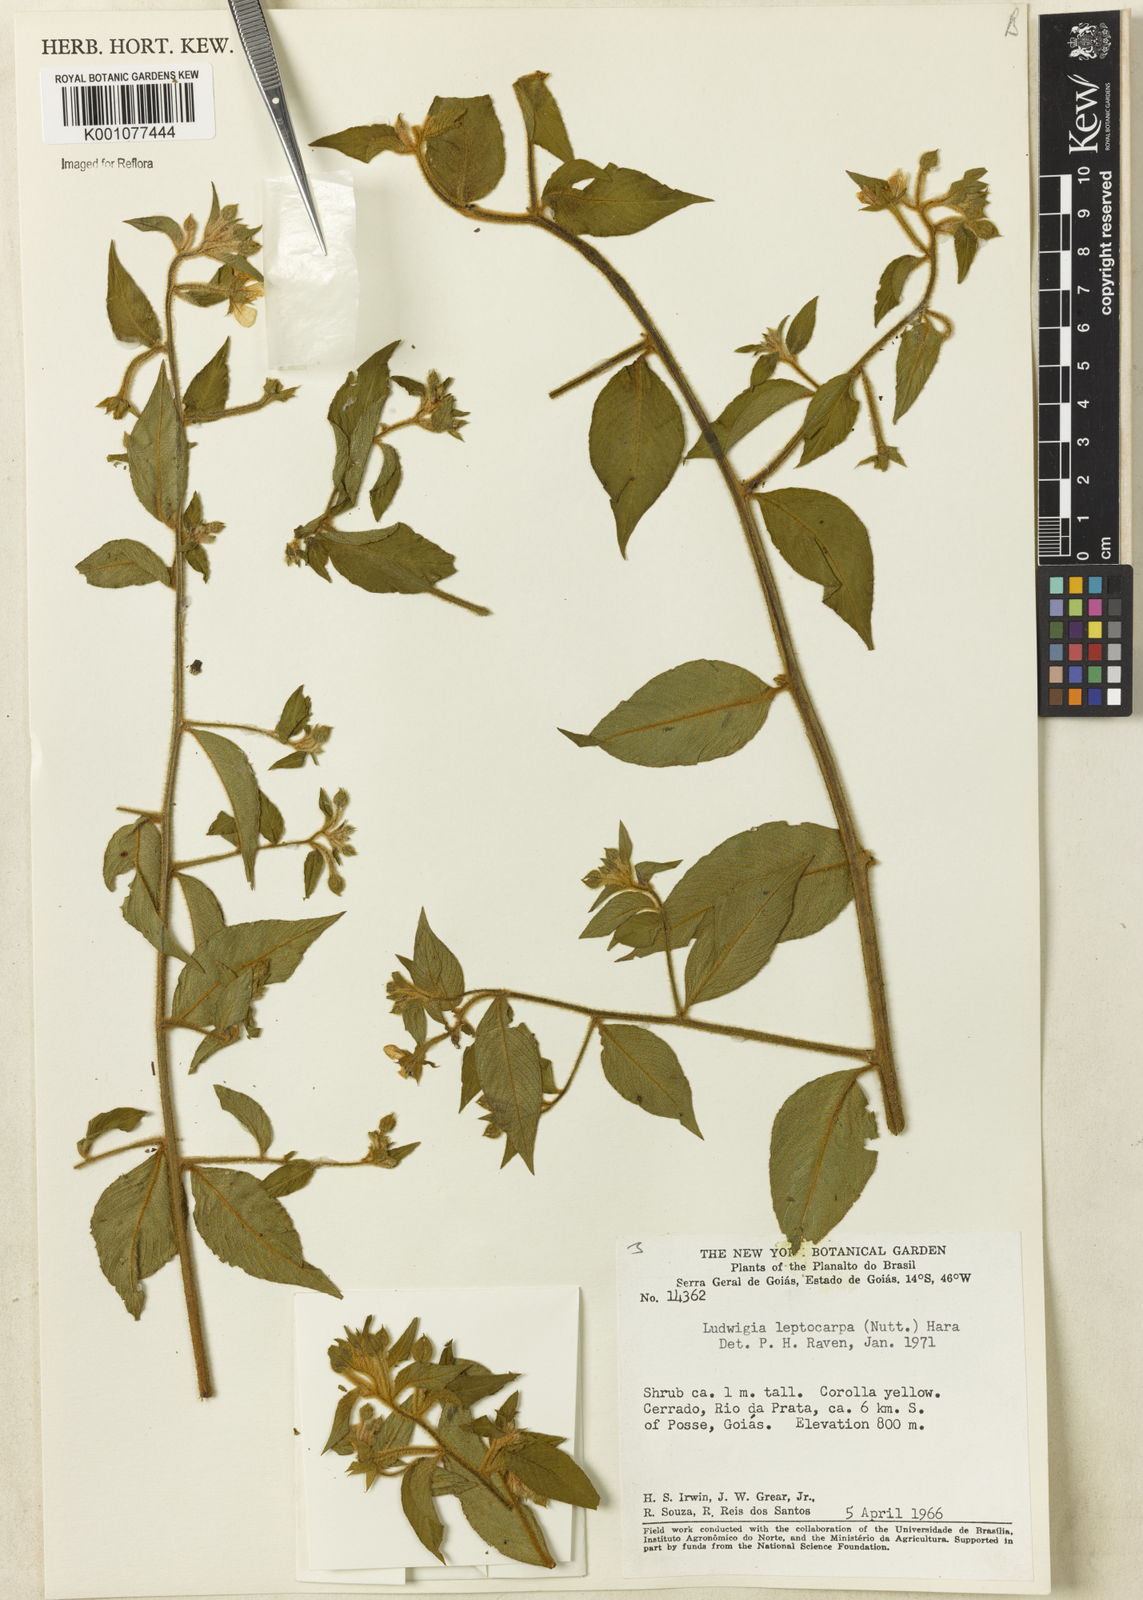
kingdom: Plantae
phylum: Tracheophyta
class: Magnoliopsida
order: Myrtales
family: Onagraceae
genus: Ludwigia
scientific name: Ludwigia leptocarpa
